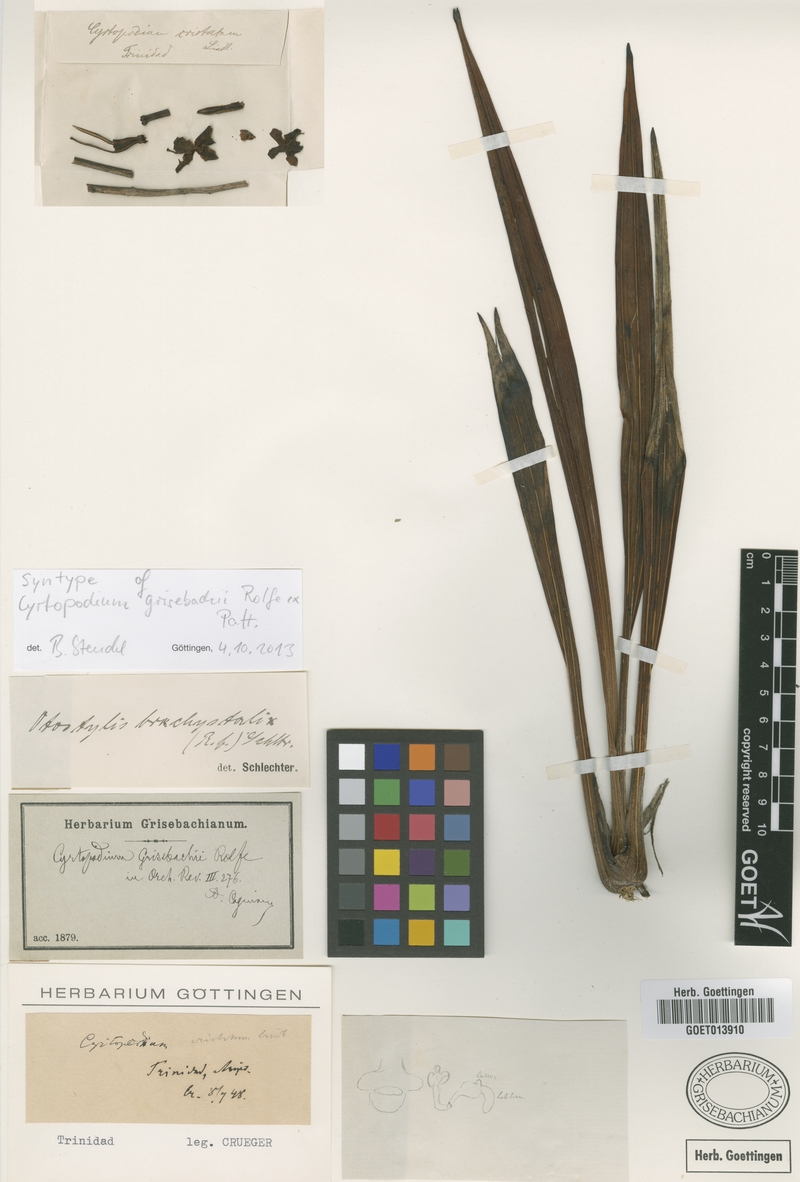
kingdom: Plantae
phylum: Tracheophyta
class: Liliopsida
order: Asparagales
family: Orchidaceae
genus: Otostylis
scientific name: Otostylis brachystalix
